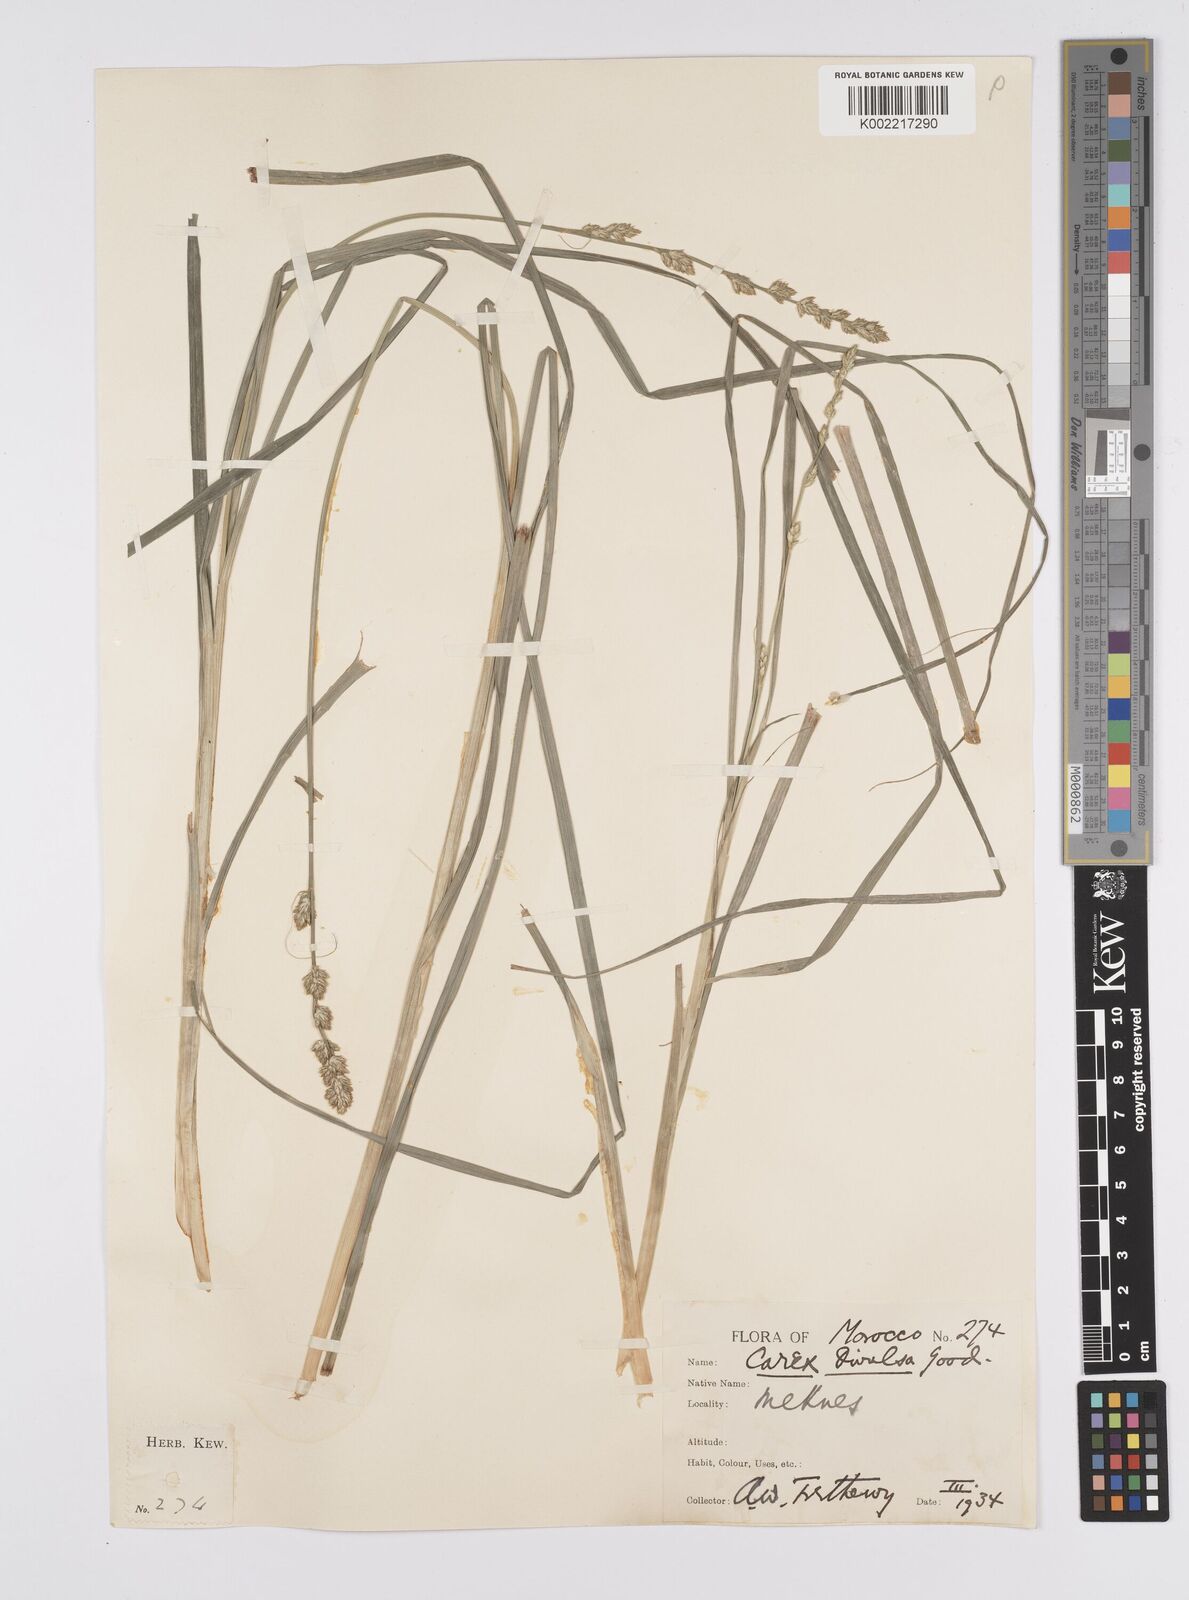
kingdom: Plantae
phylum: Tracheophyta
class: Liliopsida
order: Poales
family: Cyperaceae
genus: Carex
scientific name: Carex muricata
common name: Rough sedge
